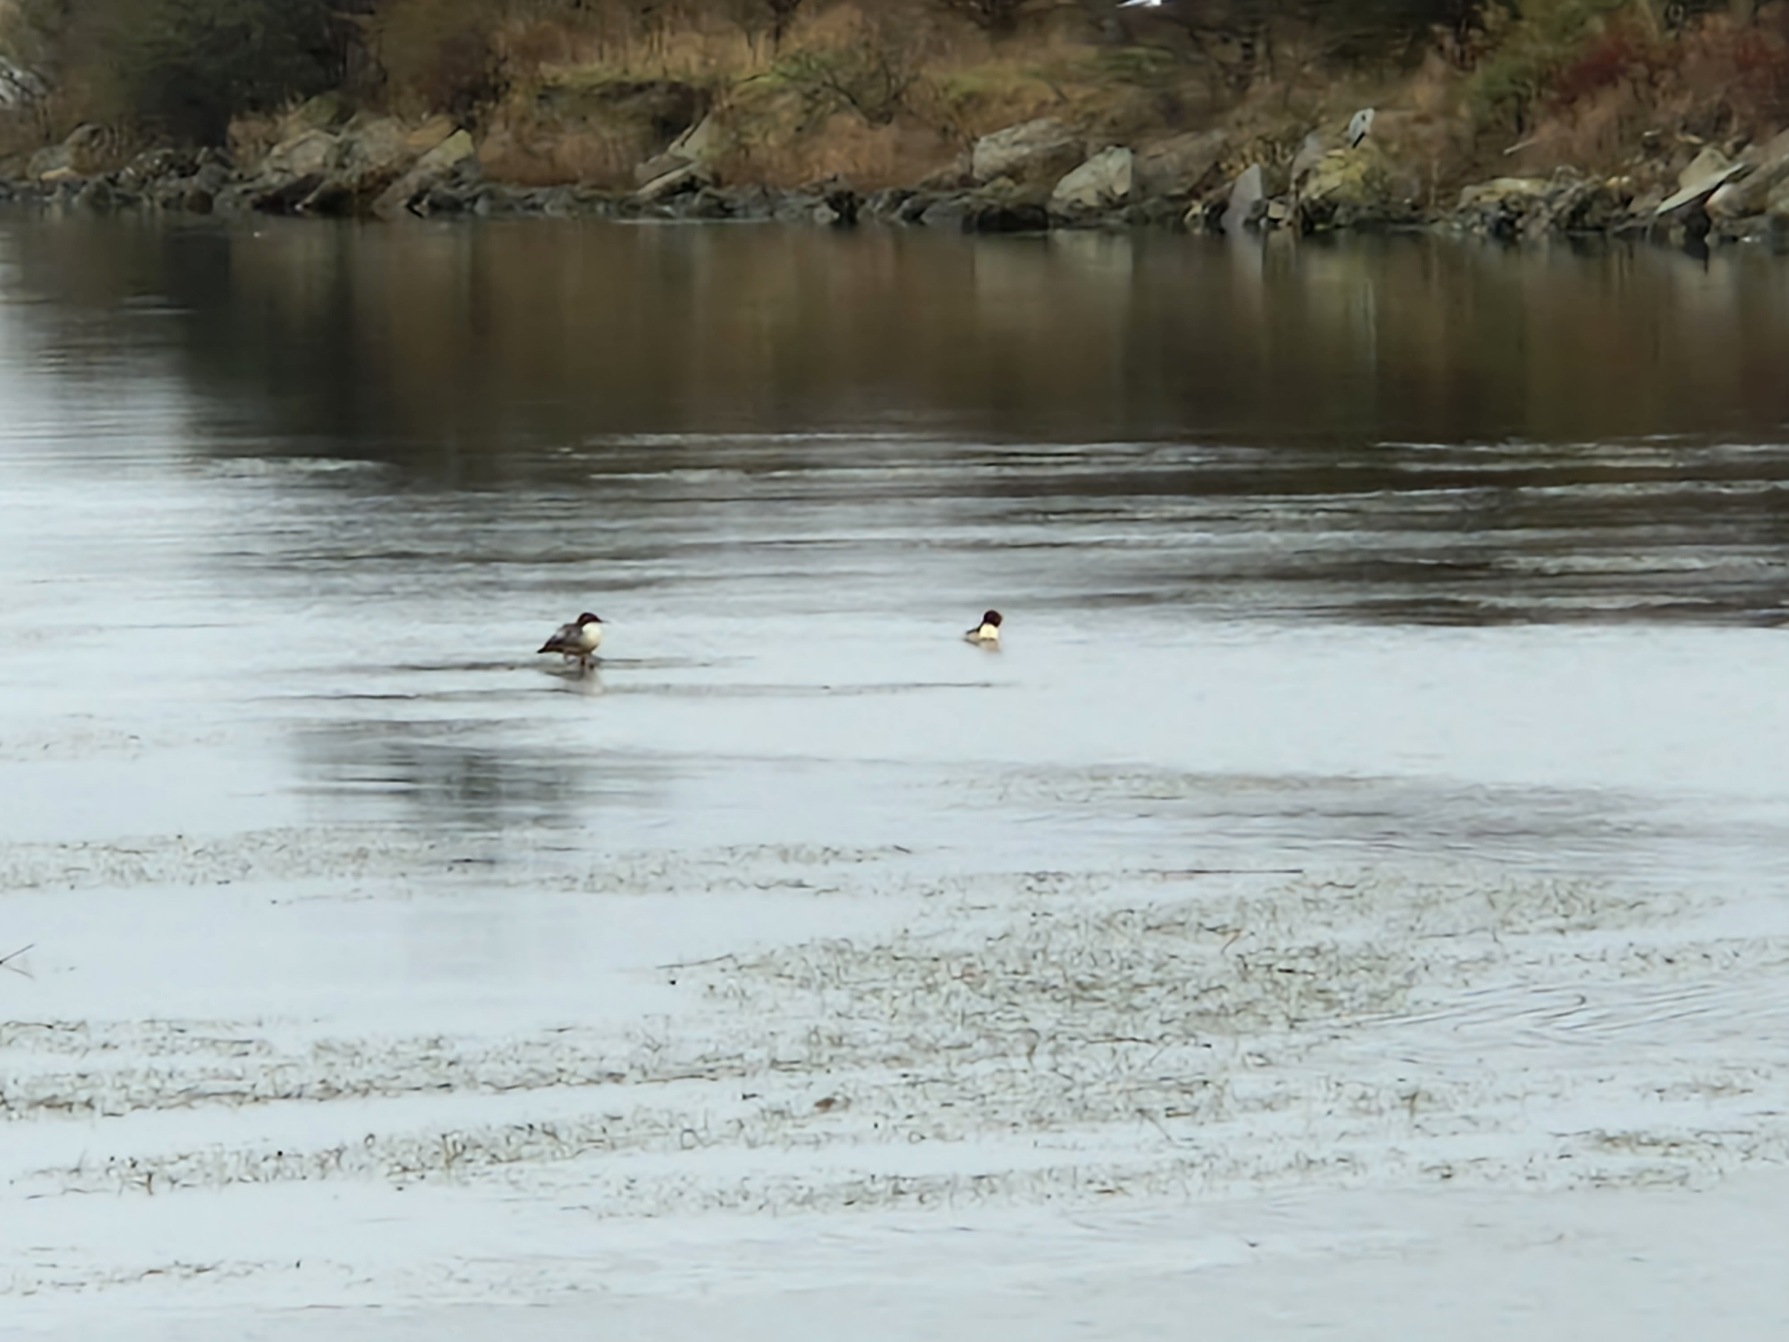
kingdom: Animalia
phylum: Chordata
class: Aves
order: Anseriformes
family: Anatidae
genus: Mergus
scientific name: Mergus merganser
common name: Stor skallesluger
